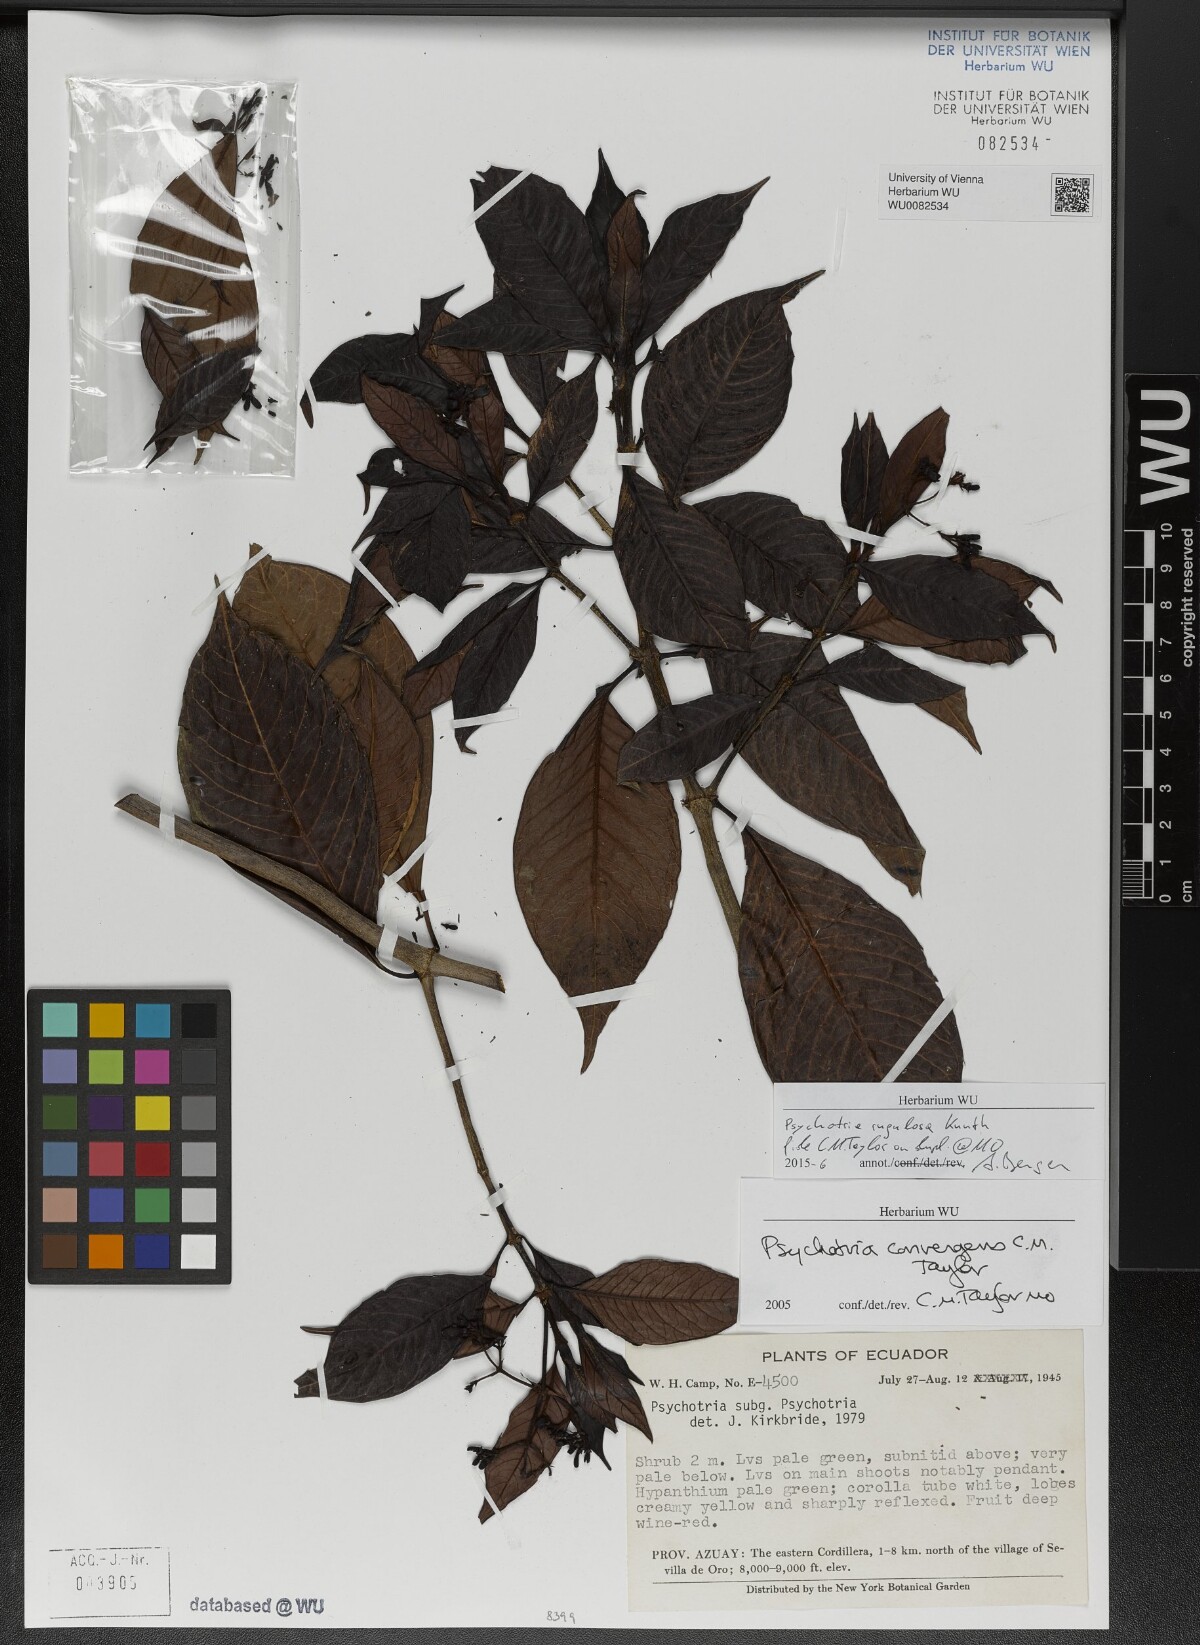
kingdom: Plantae
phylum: Tracheophyta
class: Magnoliopsida
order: Gentianales
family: Rubiaceae
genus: Psychotria
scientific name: Psychotria rugulosa
